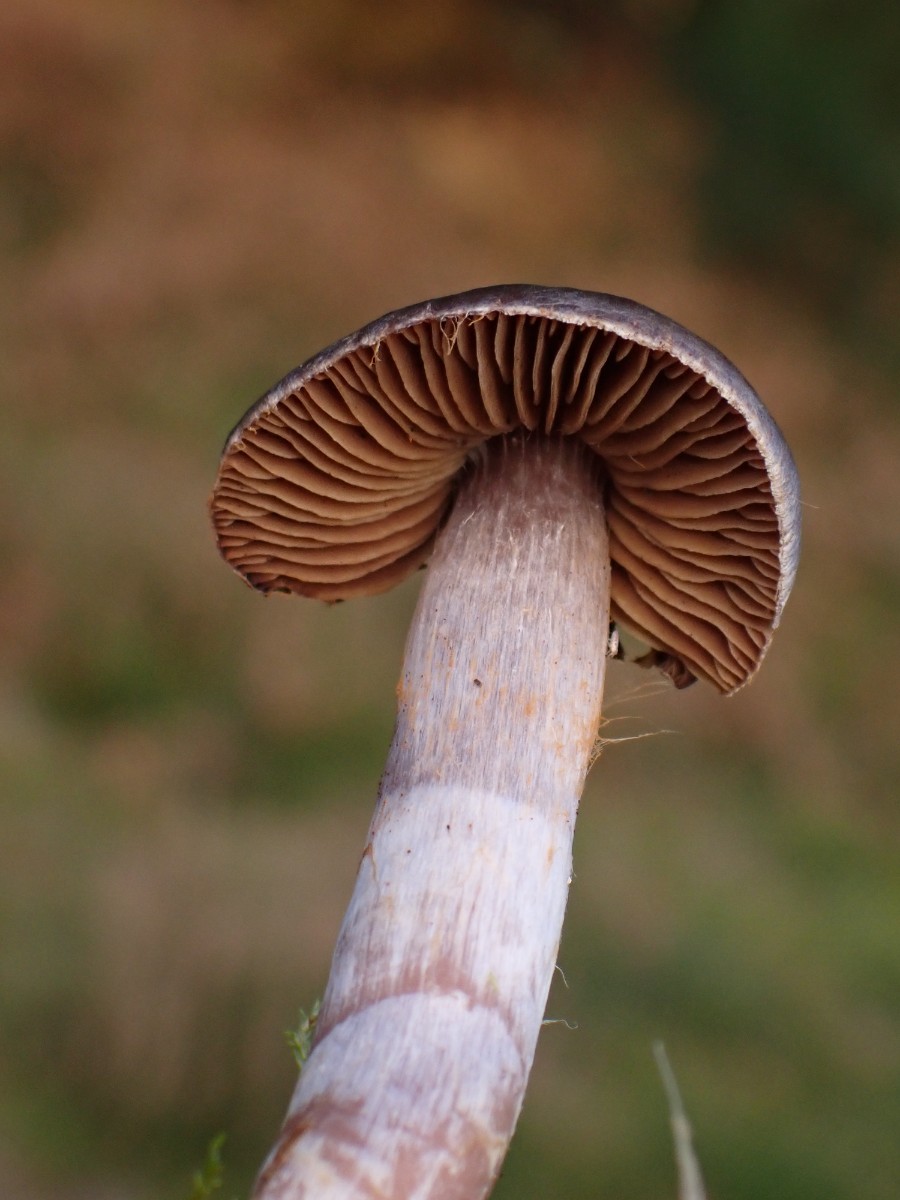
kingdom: Fungi
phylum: Basidiomycota
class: Agaricomycetes
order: Agaricales
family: Cortinariaceae
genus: Cortinarius
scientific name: Cortinarius
